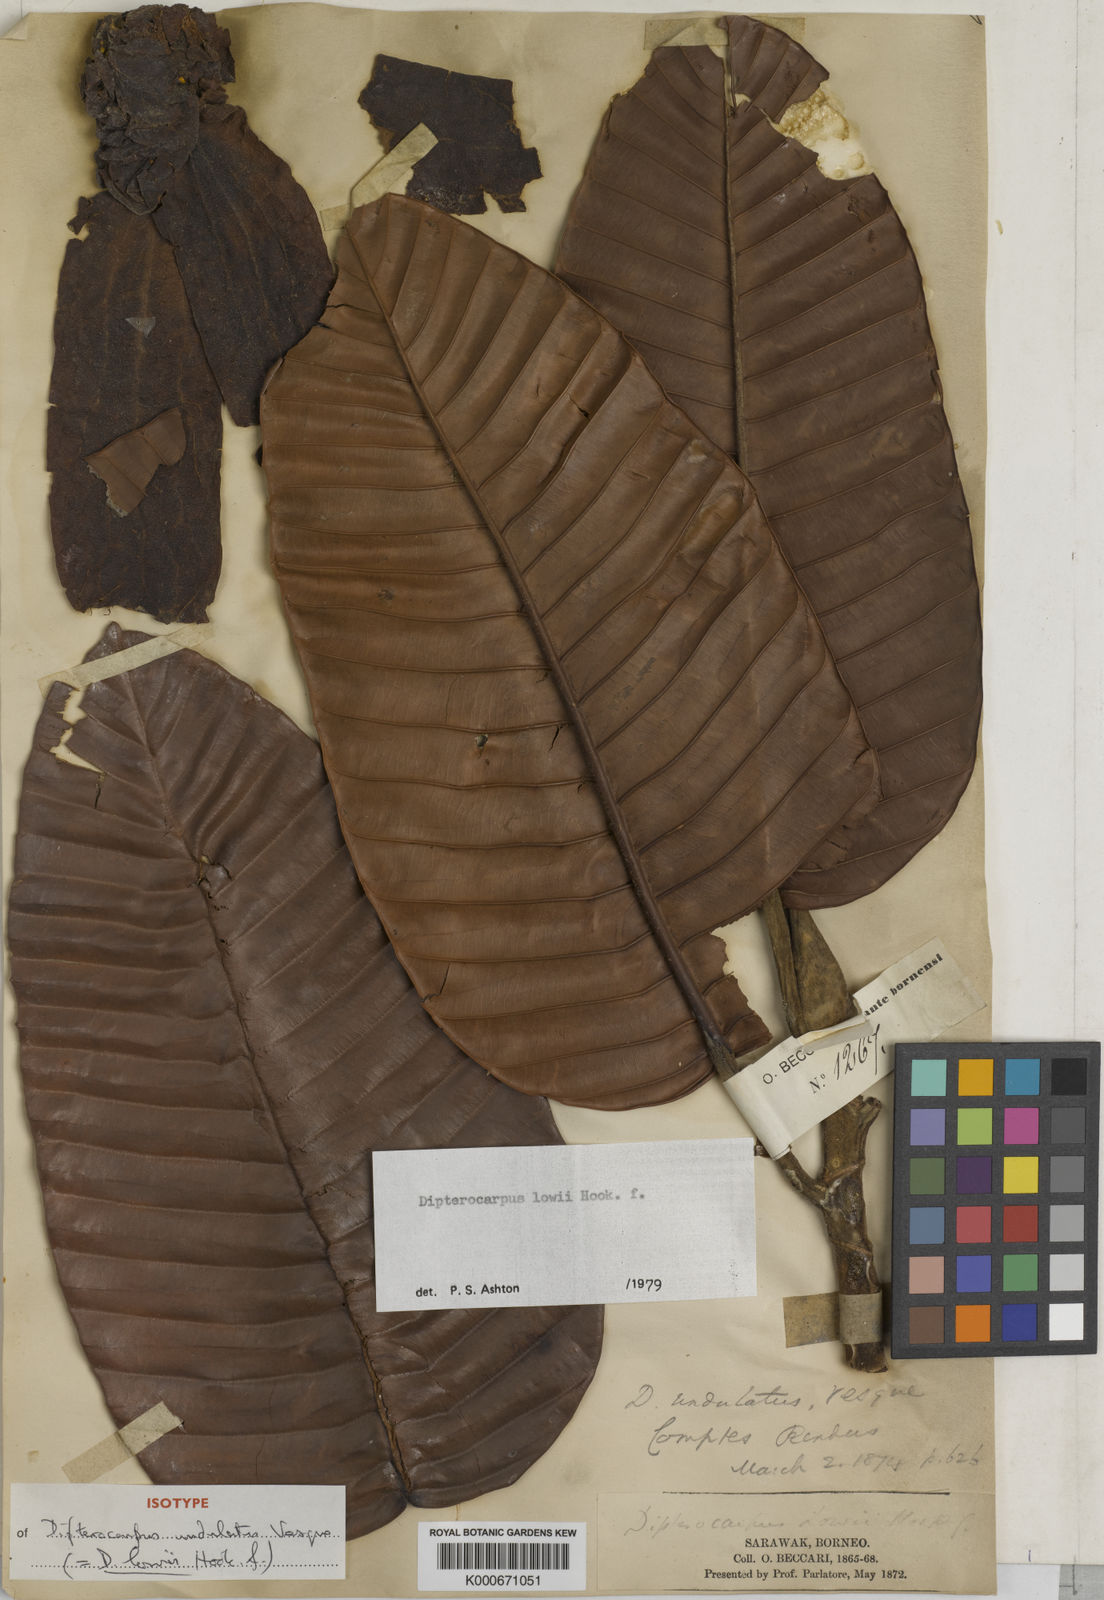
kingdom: Plantae
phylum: Tracheophyta
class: Magnoliopsida
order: Malvales
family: Dipterocarpaceae
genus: Dipterocarpus
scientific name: Dipterocarpus lowii
